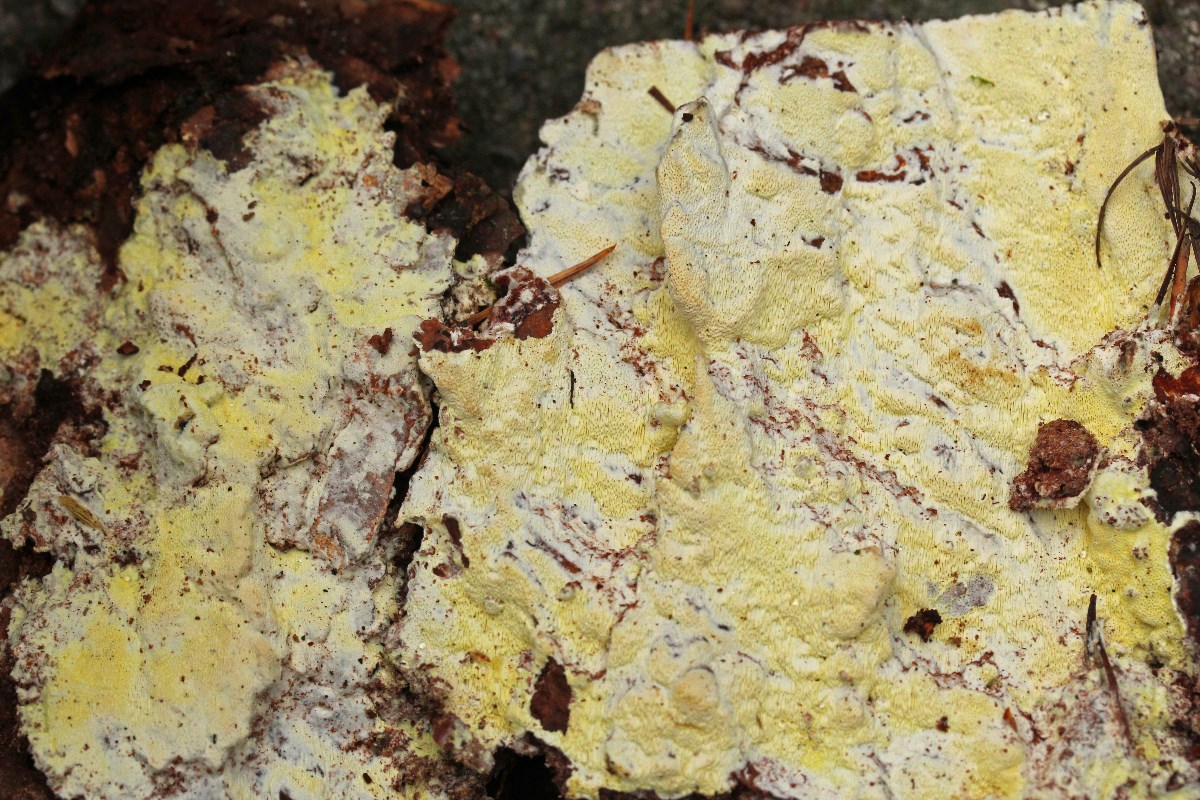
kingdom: Fungi
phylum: Basidiomycota
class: Agaricomycetes
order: Polyporales
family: Fomitopsidaceae
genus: Daedalea
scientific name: Daedalea xantha
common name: gul sejporesvamp
